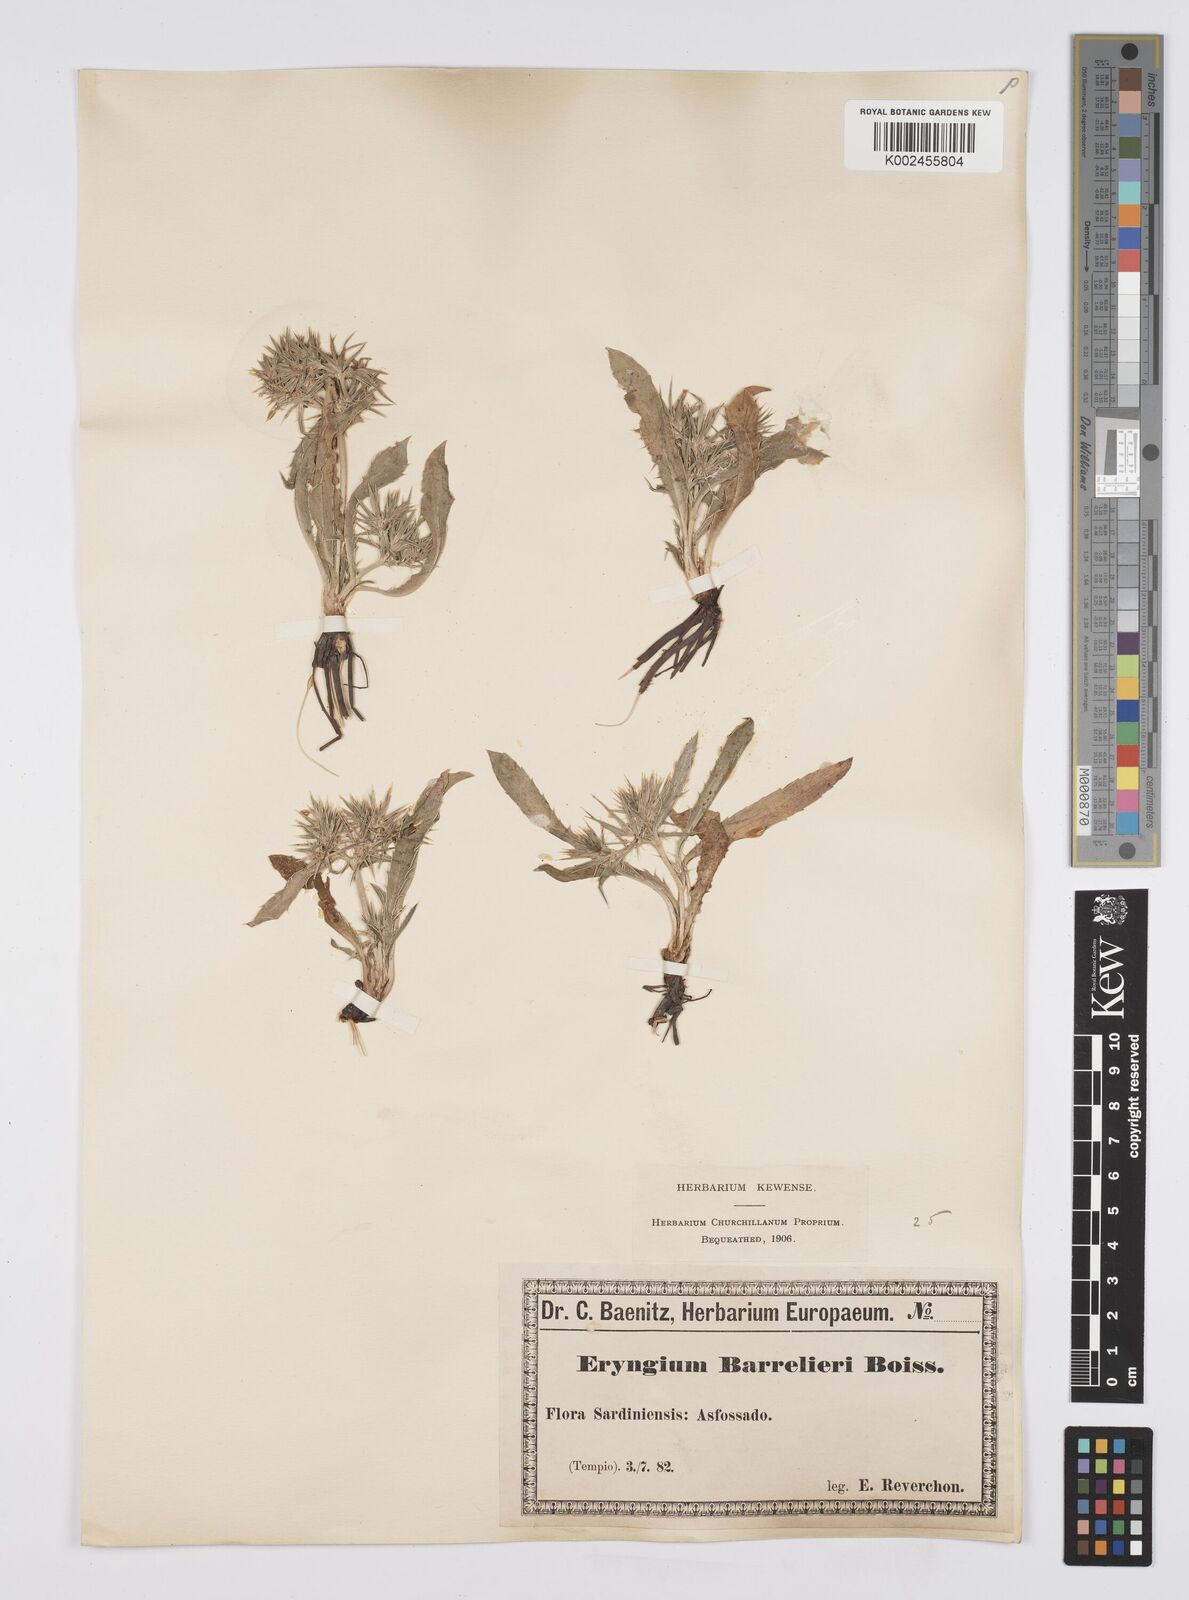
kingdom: Plantae
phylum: Tracheophyta
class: Magnoliopsida
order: Apiales
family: Apiaceae
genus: Eryngium
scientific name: Eryngium pusillum
